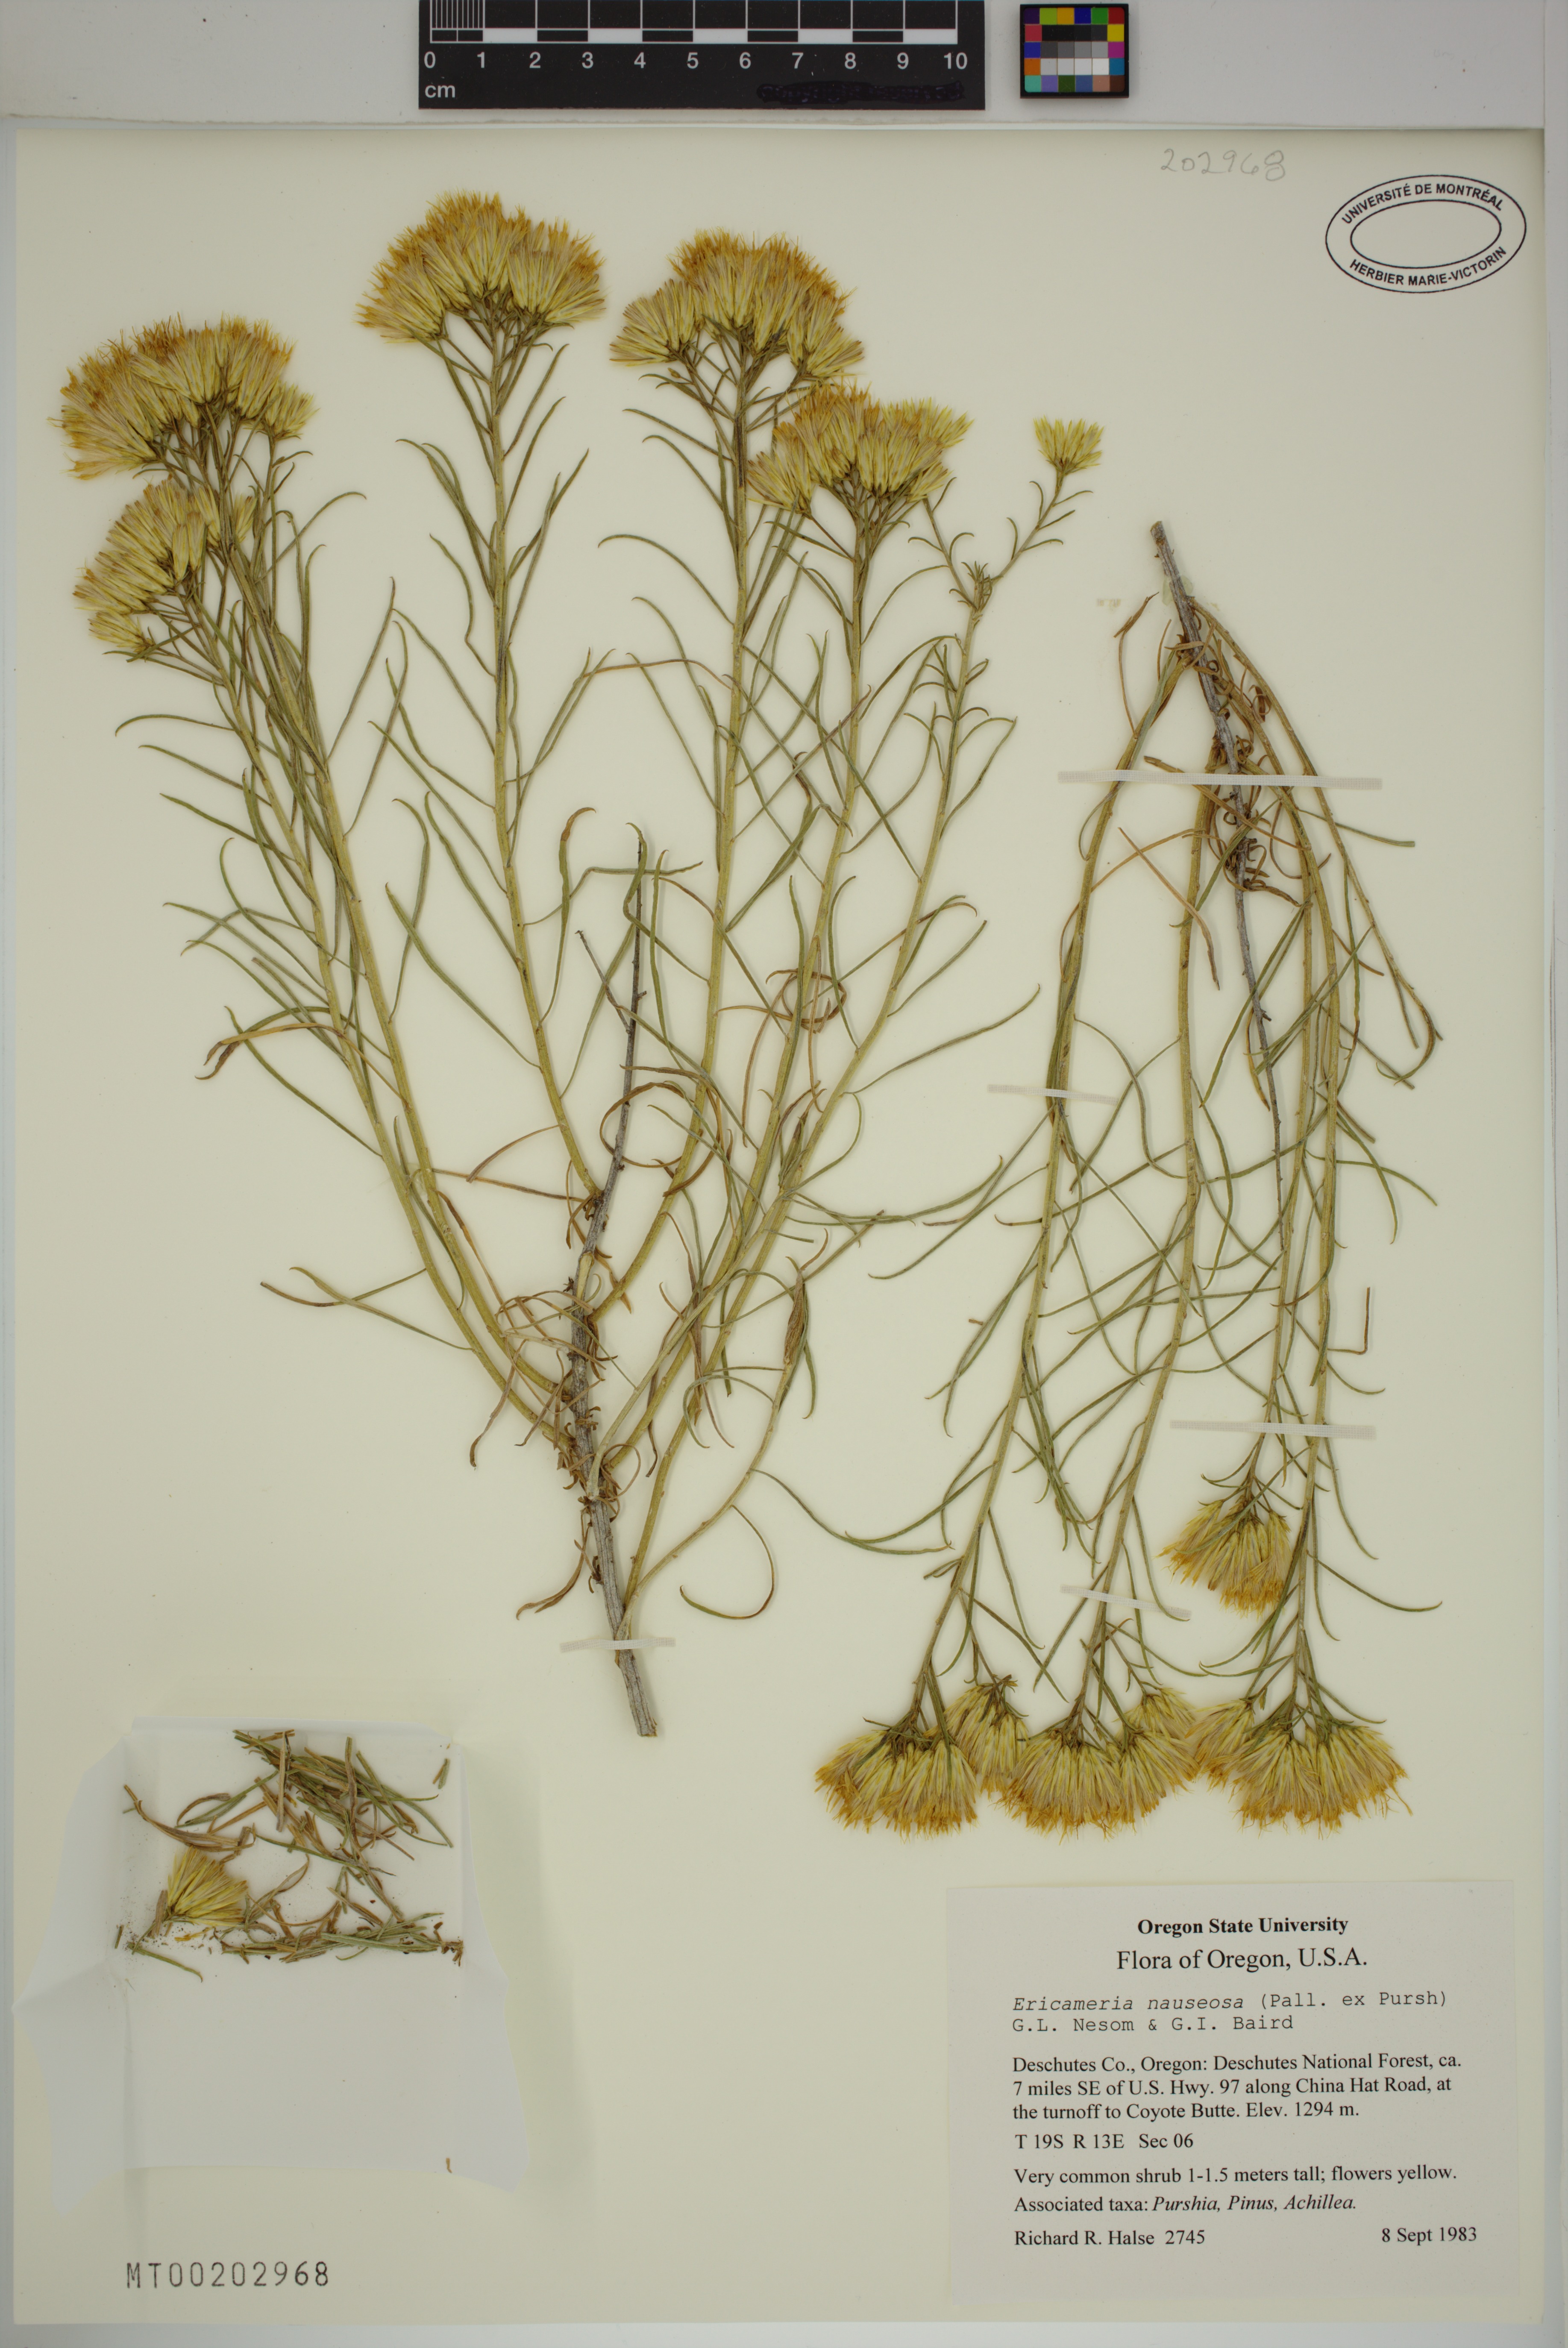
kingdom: Plantae
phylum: Tracheophyta
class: Magnoliopsida
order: Asterales
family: Asteraceae
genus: Ericameria
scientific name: Ericameria nauseosa
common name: Rubber rabbitbrush
